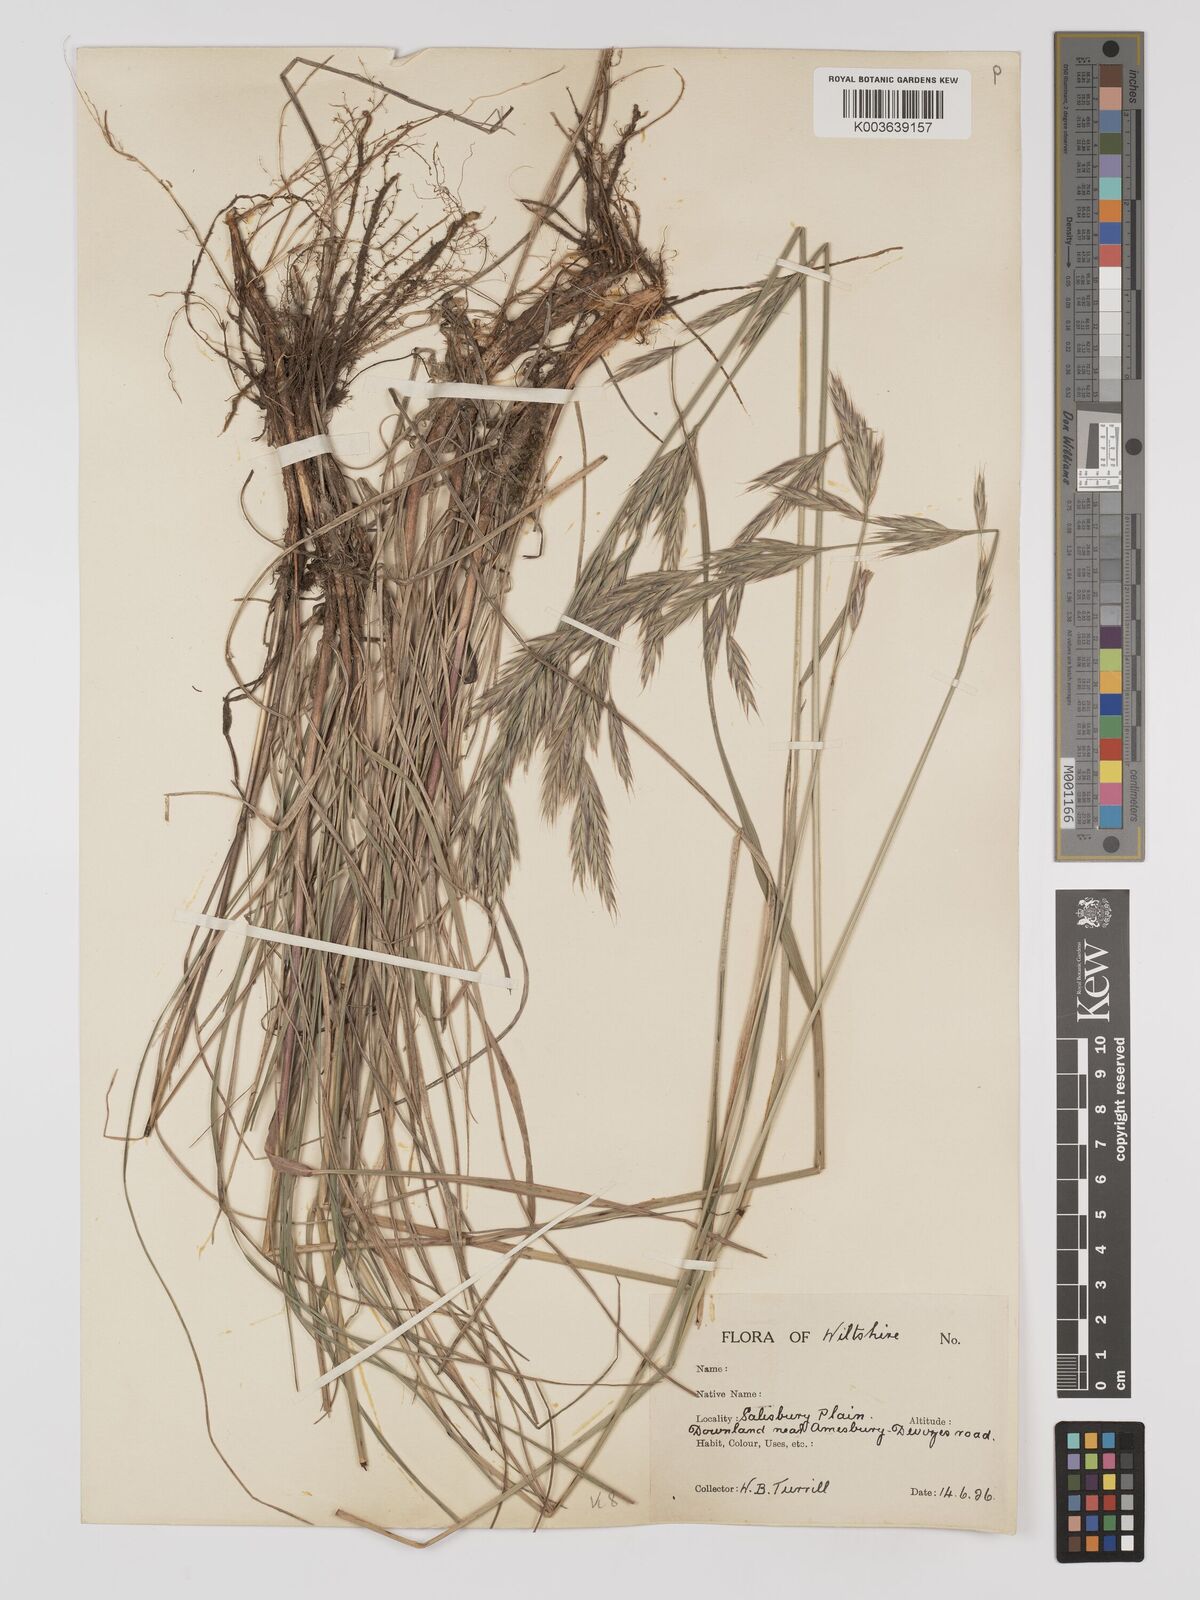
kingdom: Plantae
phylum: Tracheophyta
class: Liliopsida
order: Poales
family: Poaceae
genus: Bromus
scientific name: Bromus erectus
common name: Erect brome
